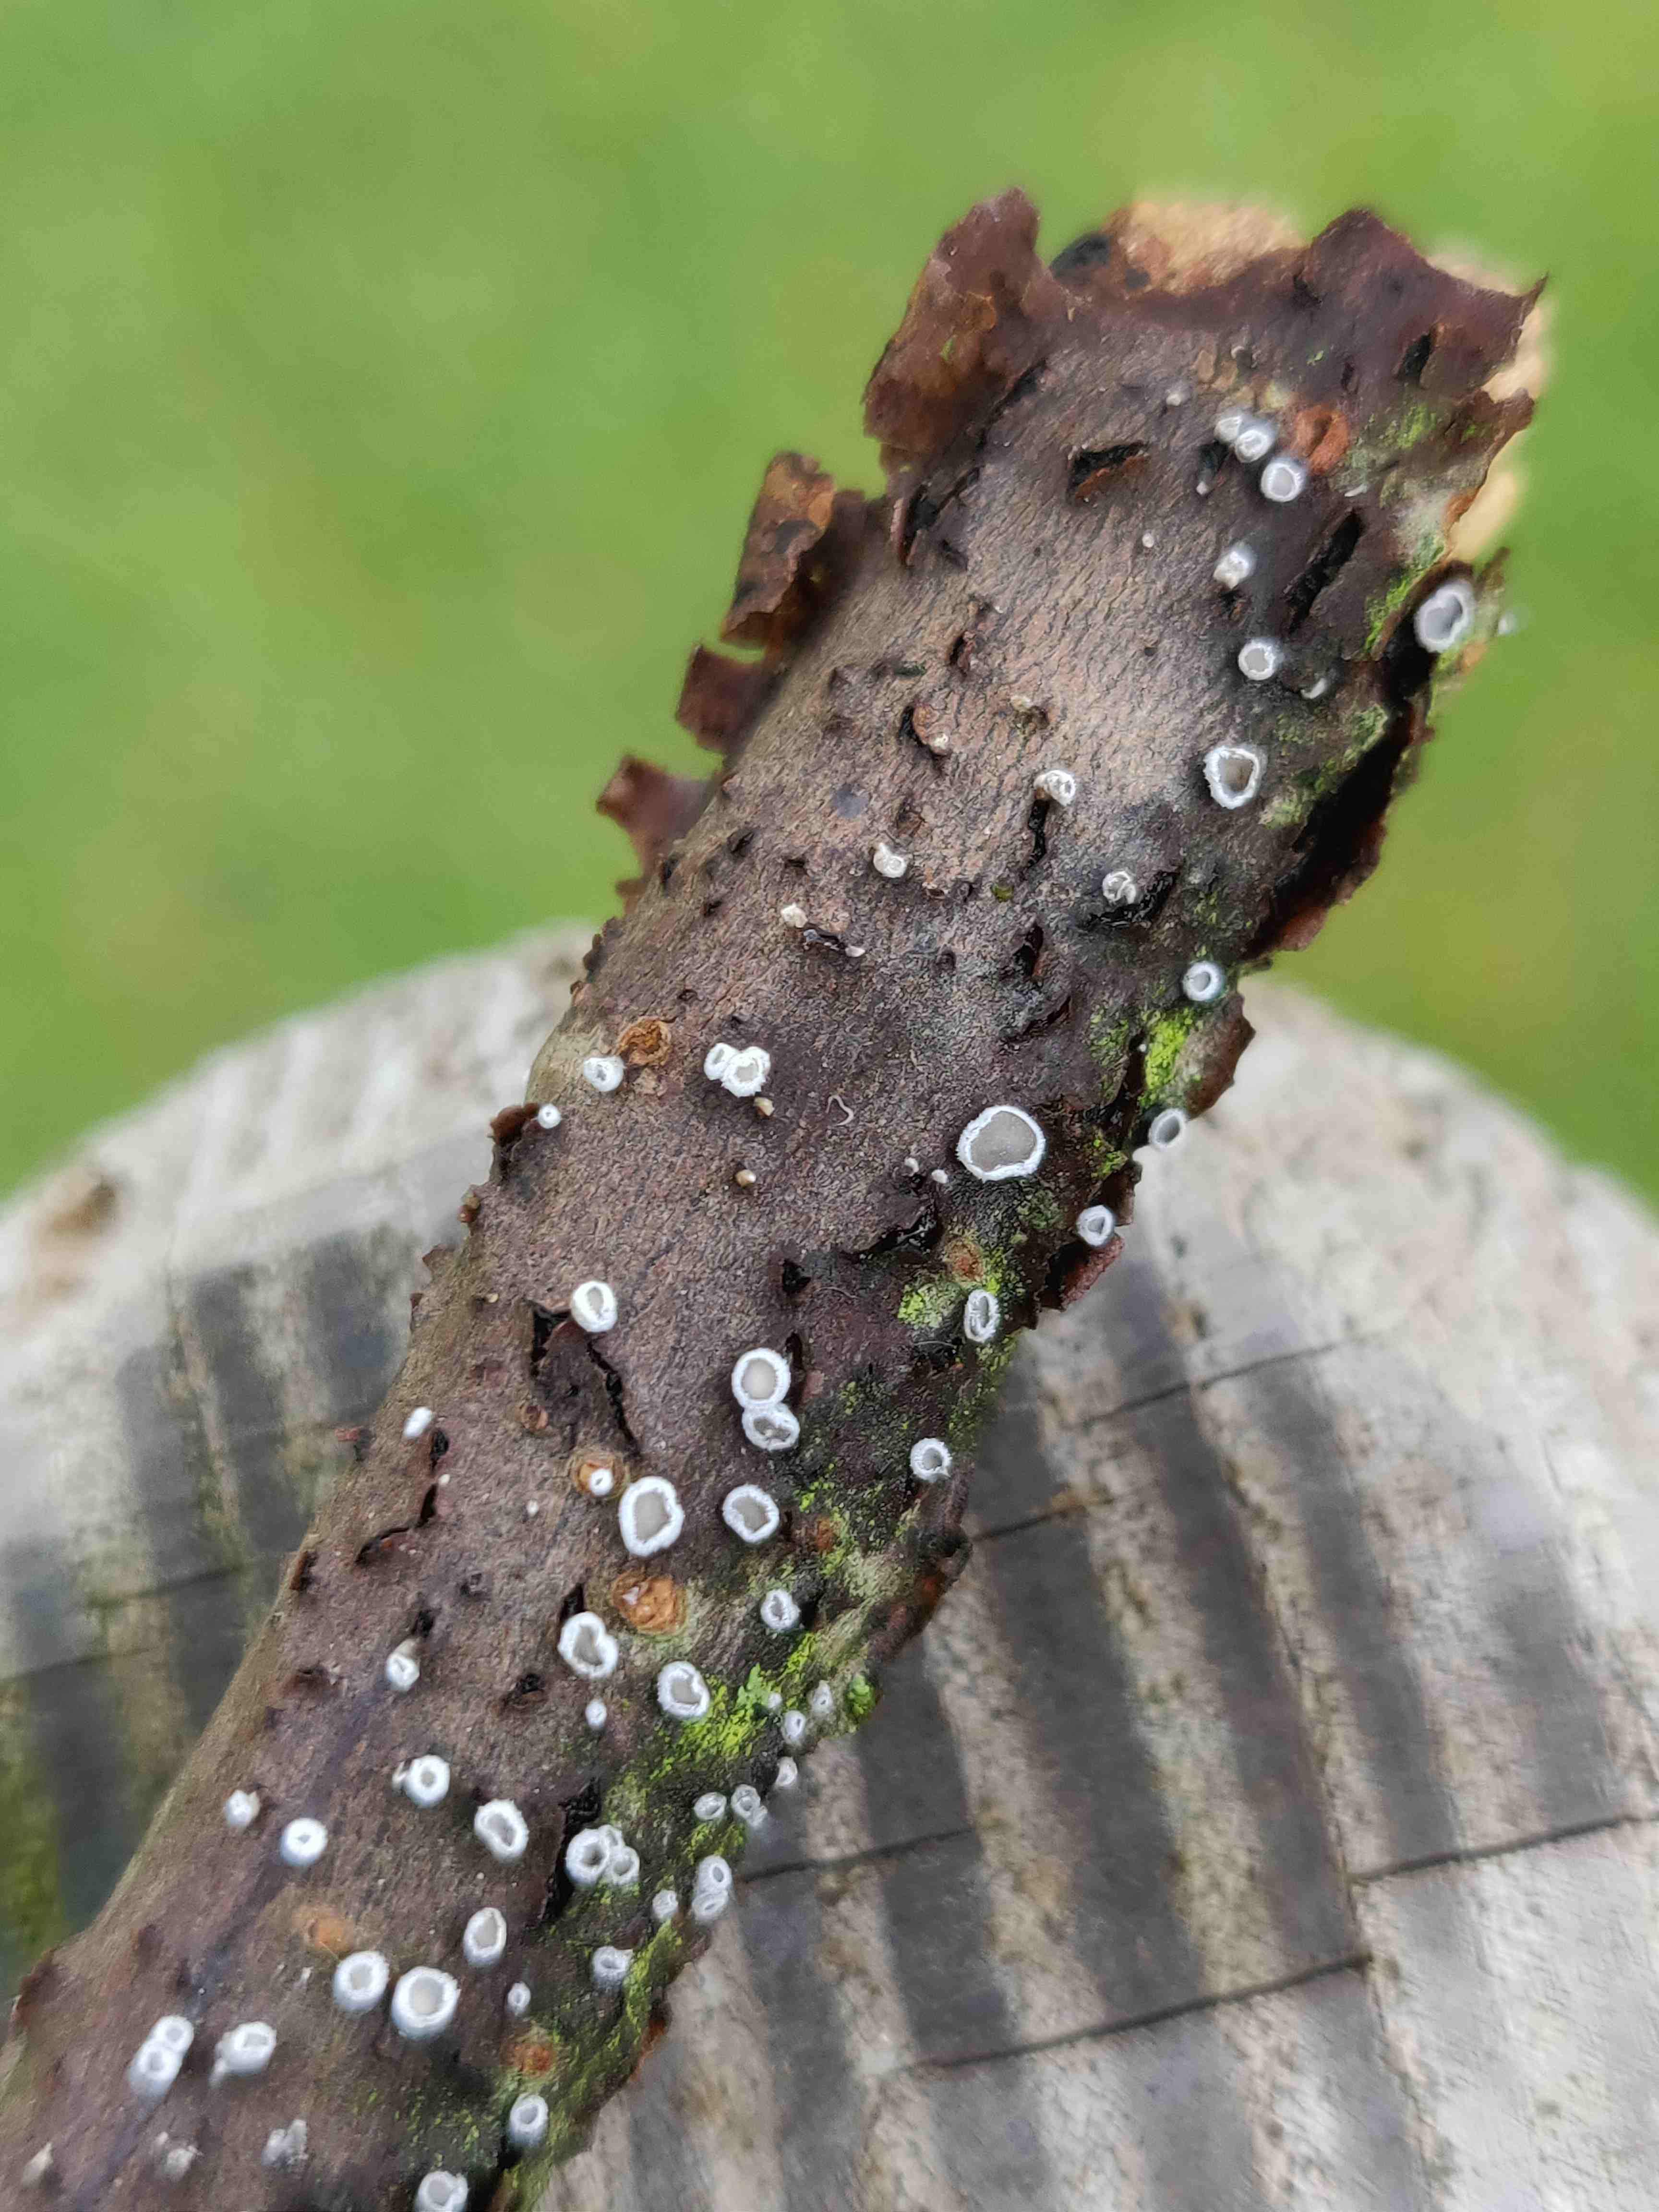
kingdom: Fungi
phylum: Basidiomycota
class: Agaricomycetes
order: Agaricales
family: Niaceae
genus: Lachnella
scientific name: Lachnella alboviolascens
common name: grå frynserede
